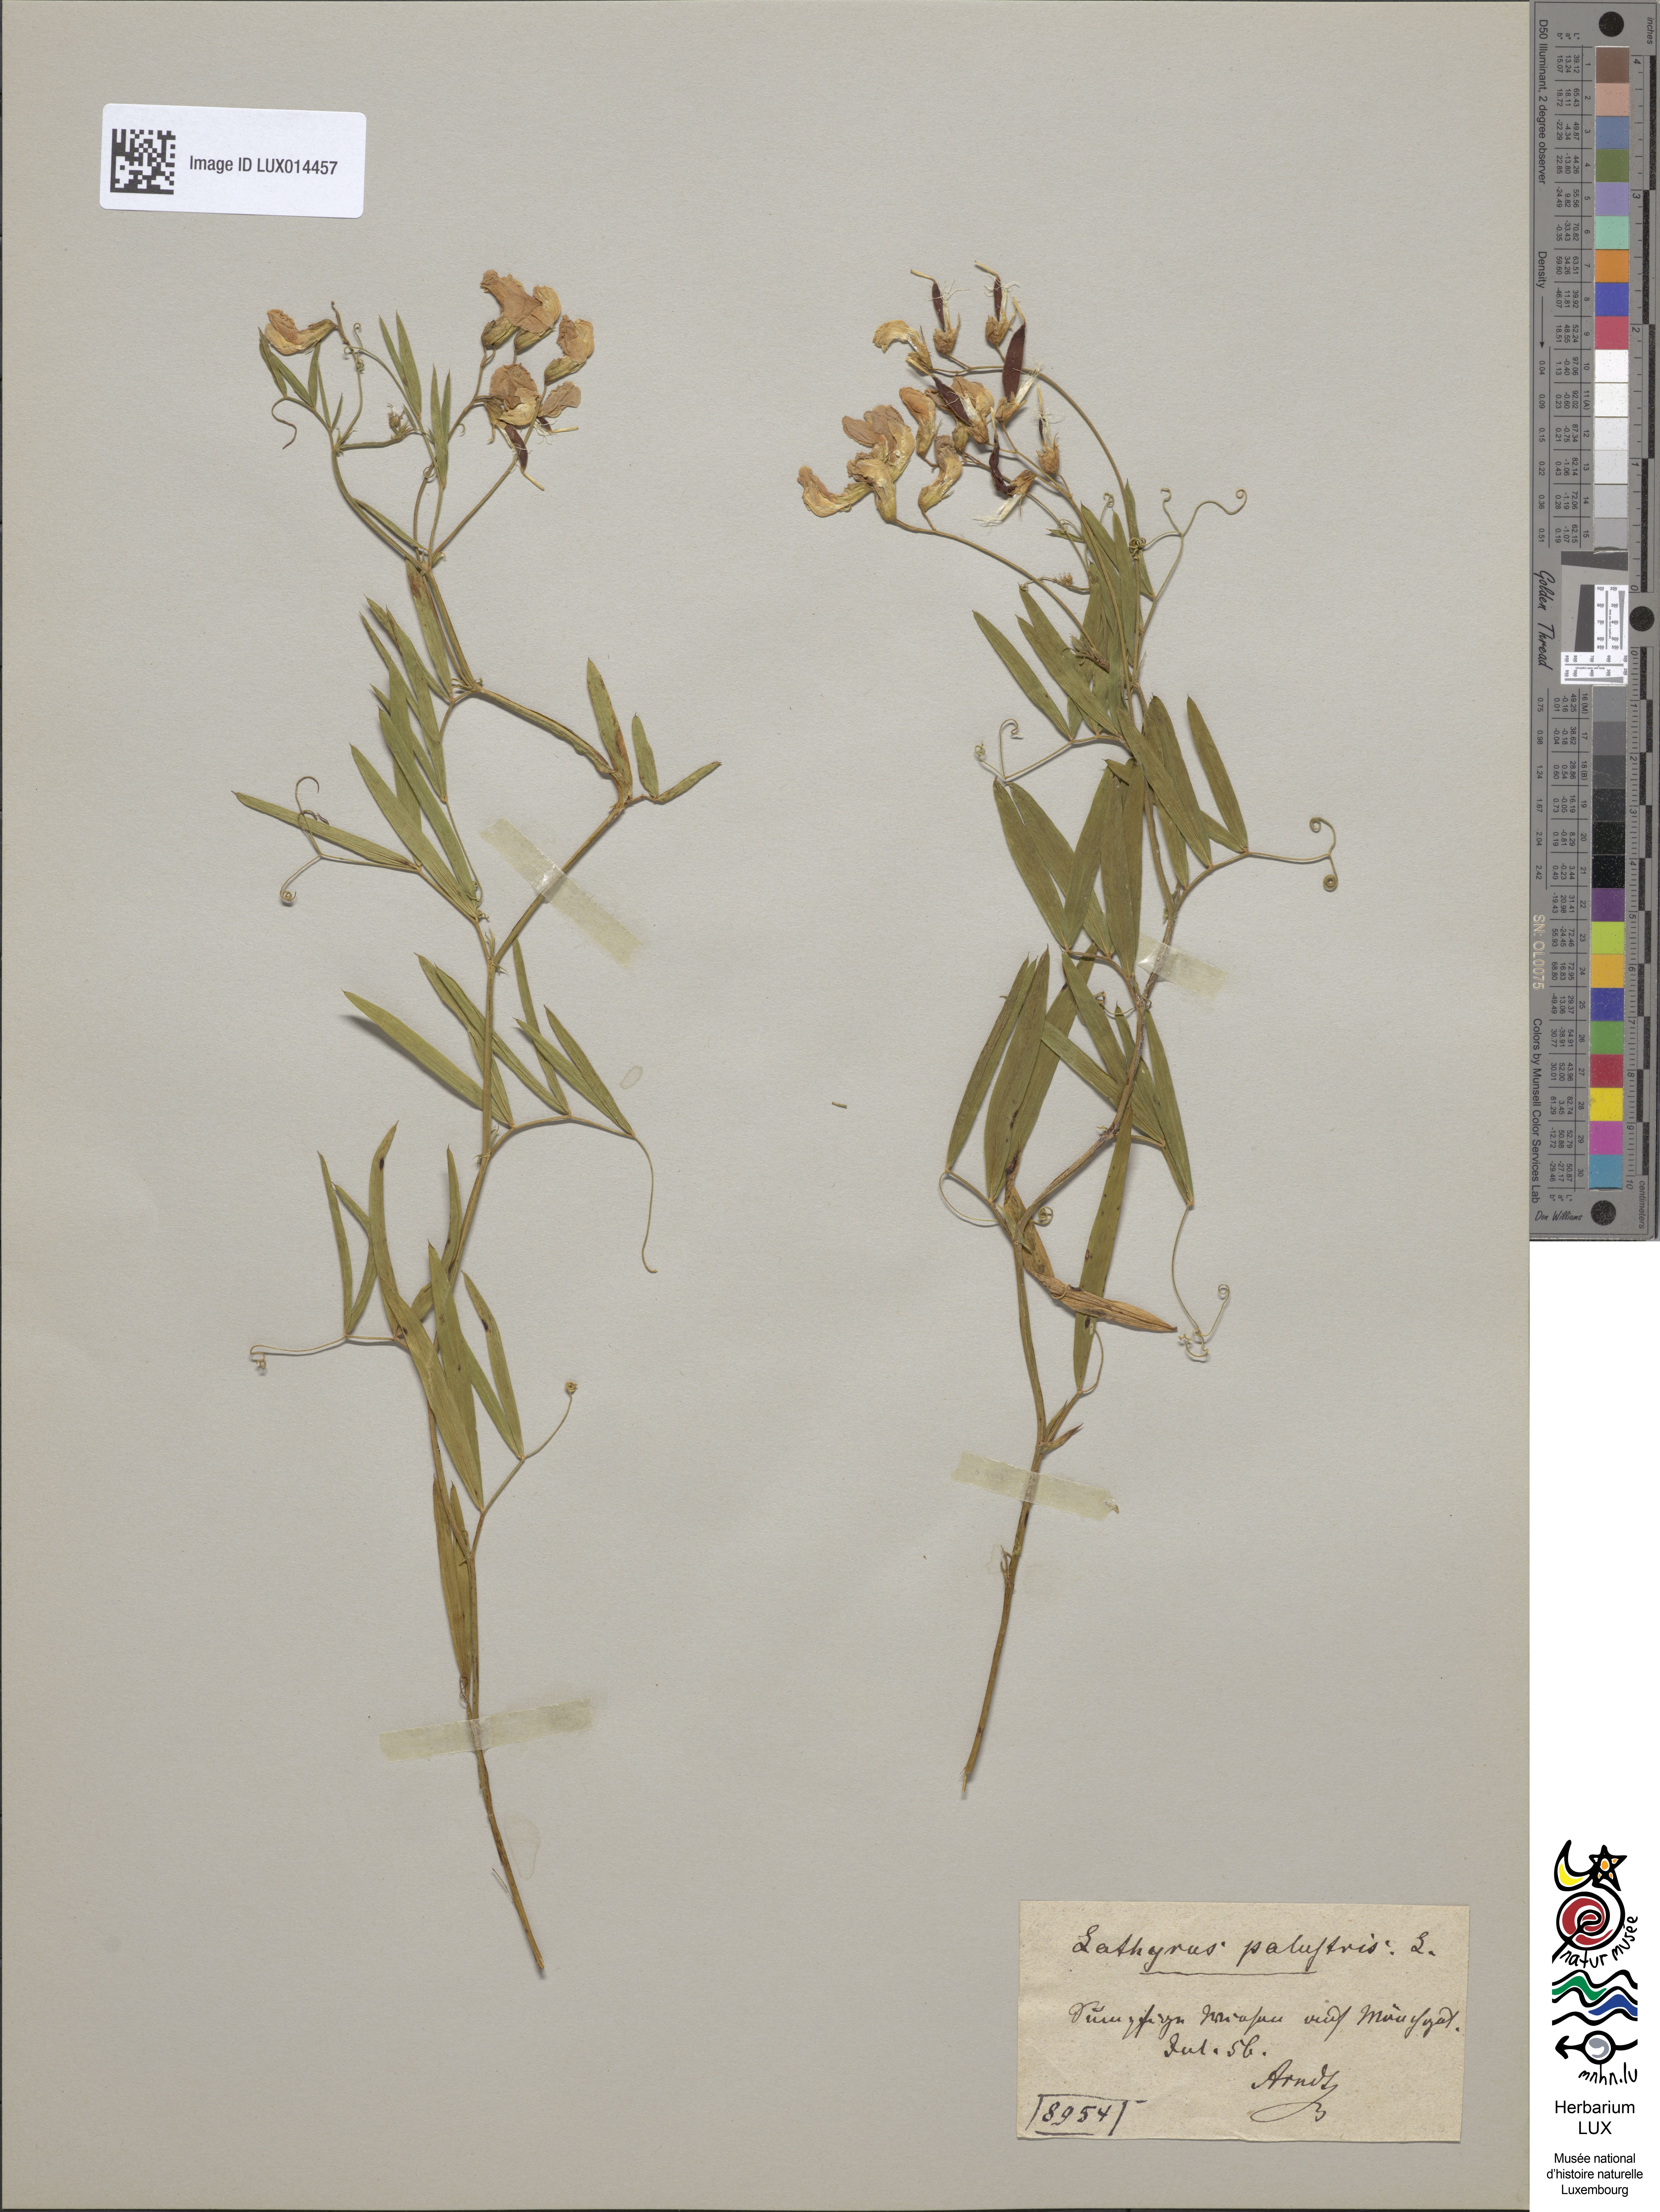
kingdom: Plantae
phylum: Tracheophyta
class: Magnoliopsida
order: Fabales
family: Fabaceae
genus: Lathyrus
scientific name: Lathyrus palustris
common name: Marsh pea
